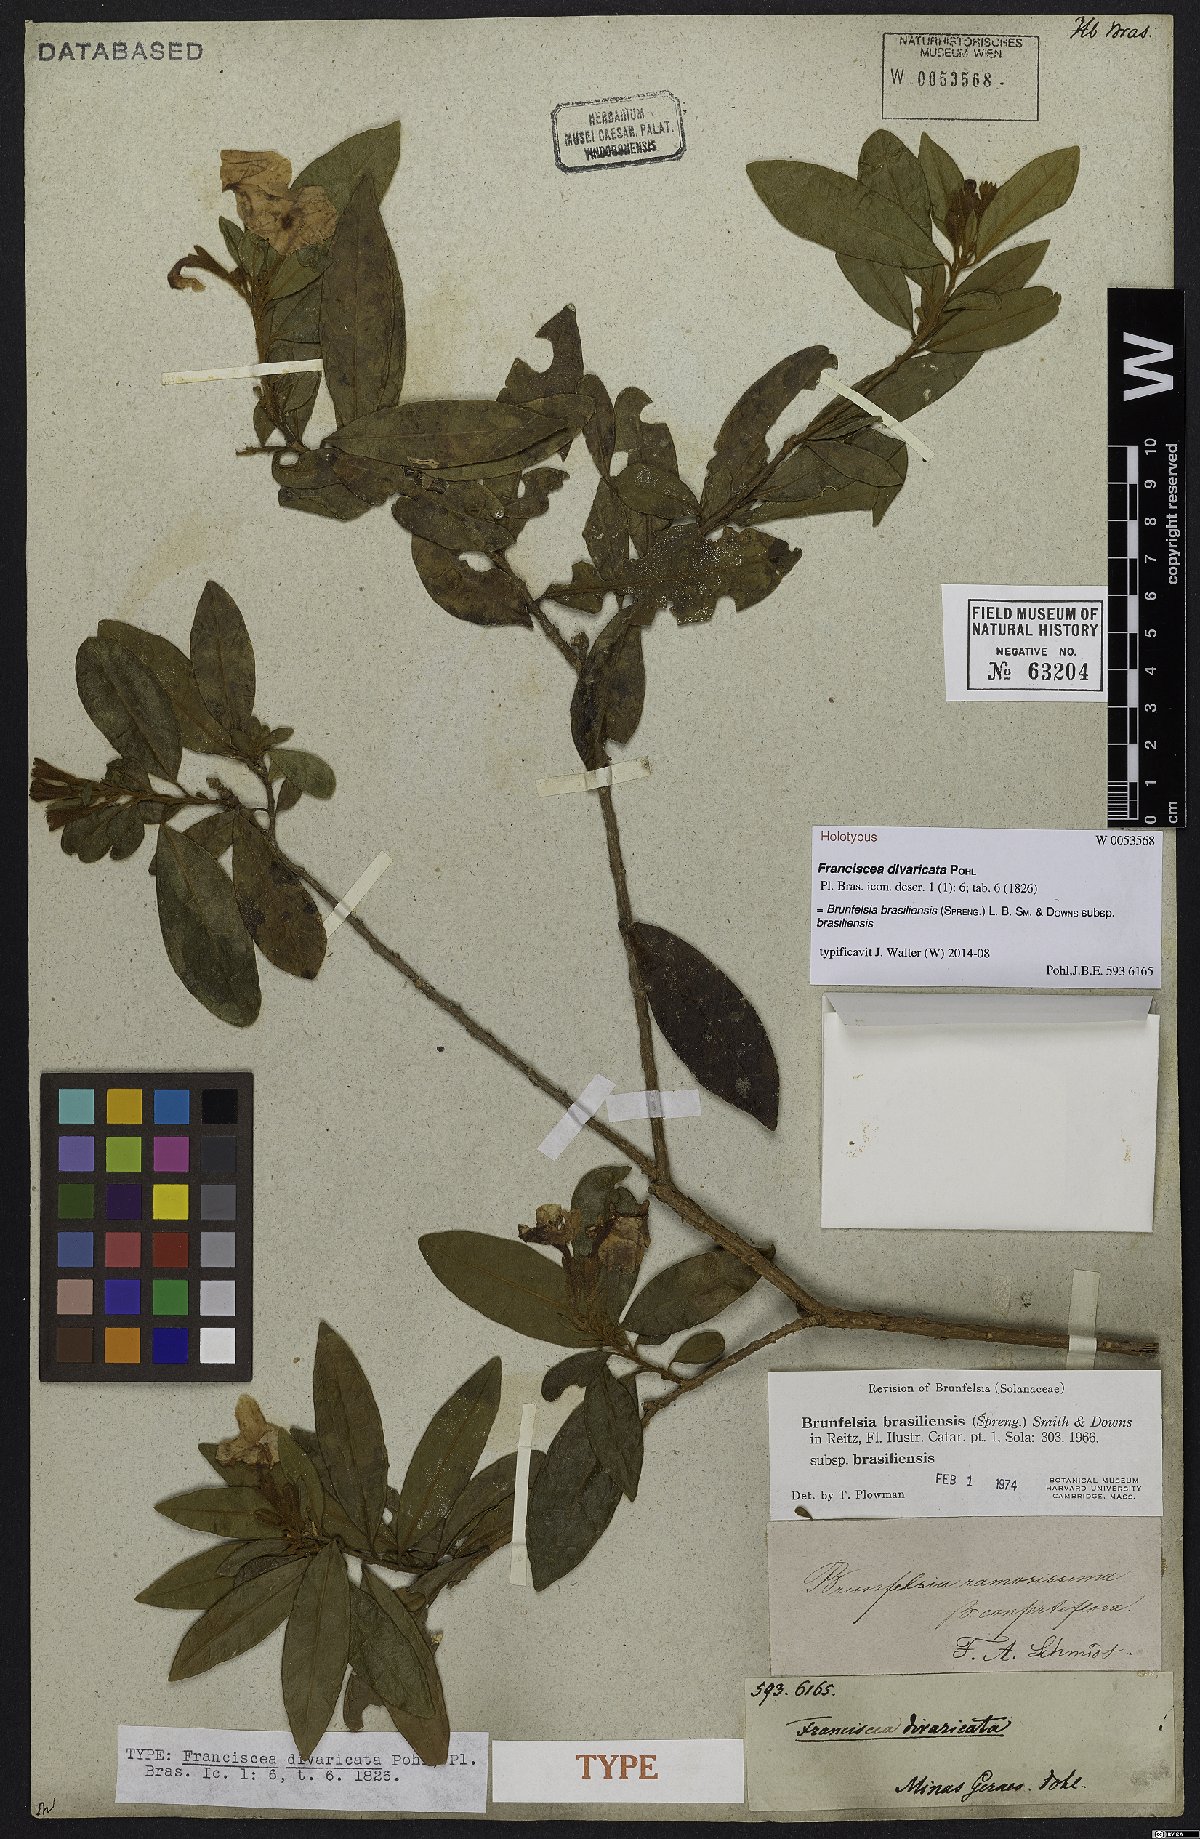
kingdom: Plantae
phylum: Tracheophyta
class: Magnoliopsida
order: Solanales
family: Solanaceae
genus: Brunfelsia
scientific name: Brunfelsia brasiliensis
